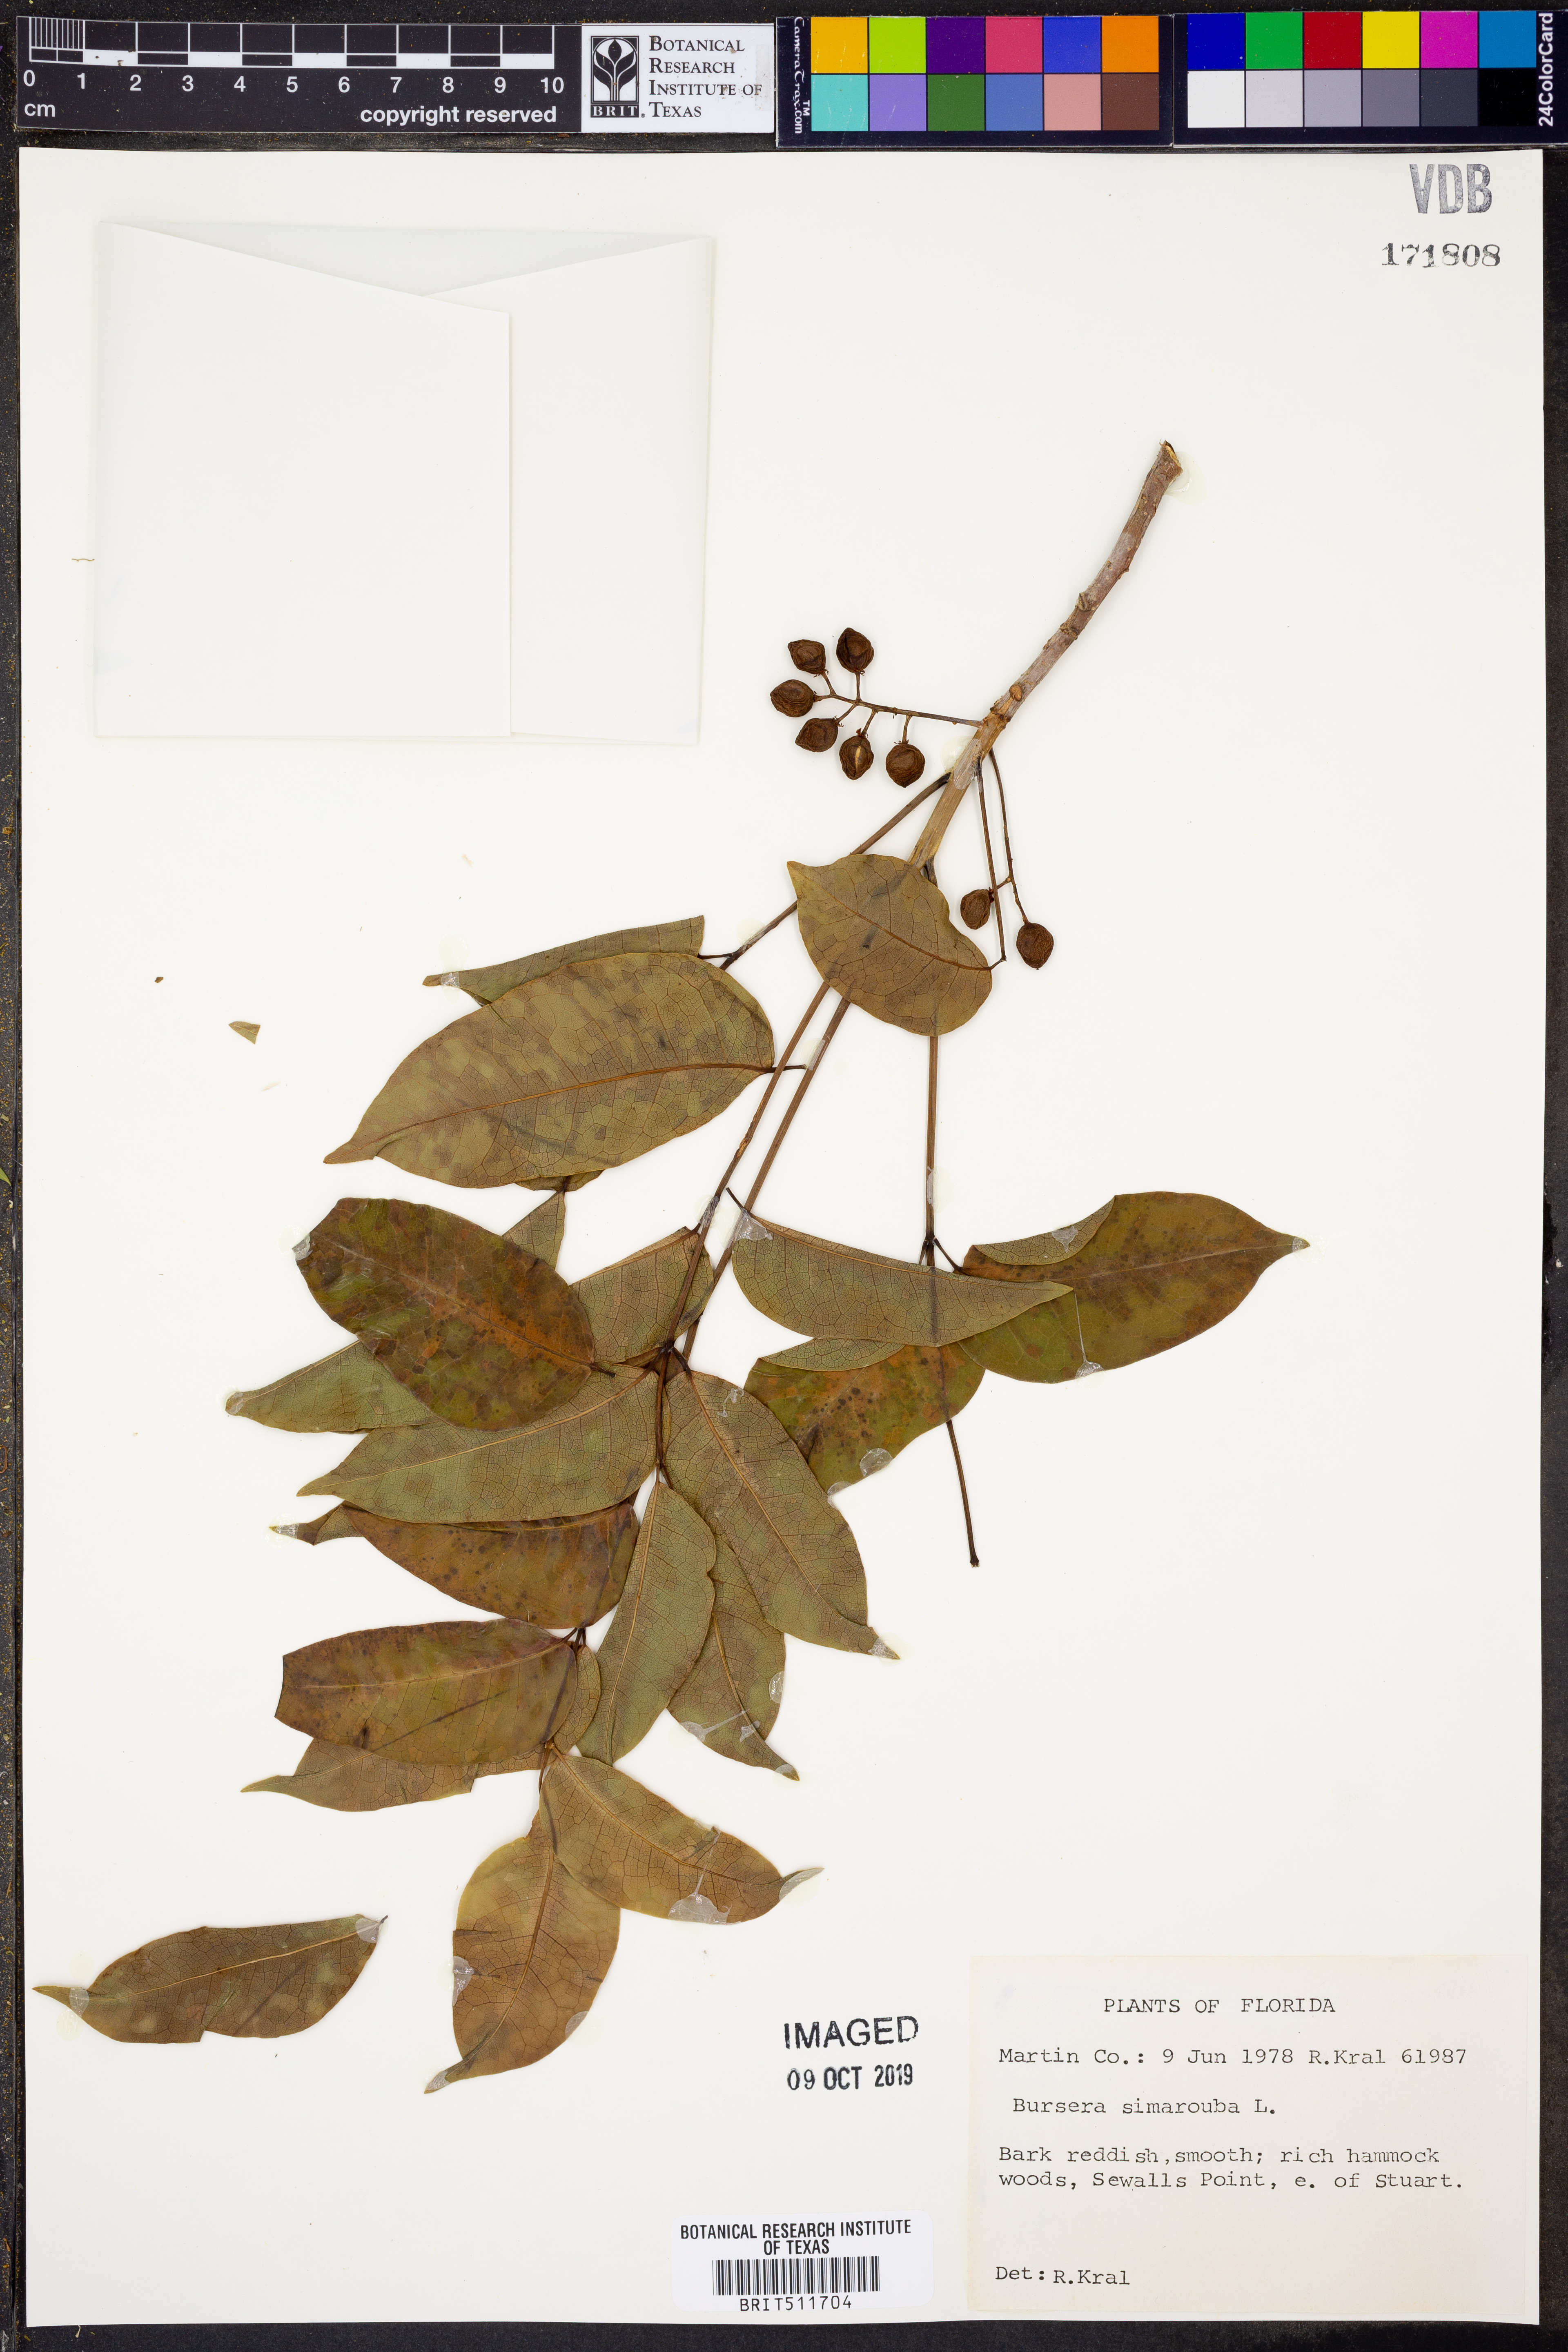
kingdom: Plantae
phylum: Tracheophyta
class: Magnoliopsida
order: Sapindales
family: Burseraceae
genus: Bursera
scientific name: Bursera simaruba
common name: Turpentine tree
